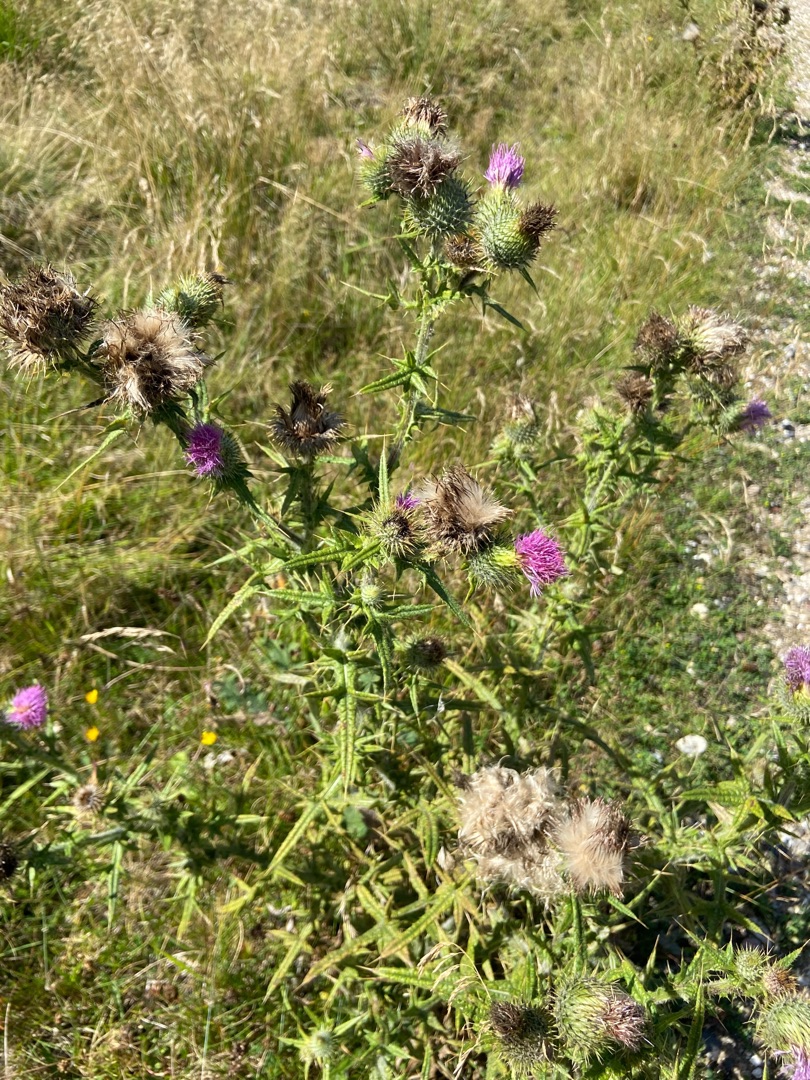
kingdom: Plantae
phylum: Tracheophyta
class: Magnoliopsida
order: Asterales
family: Asteraceae
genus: Cirsium
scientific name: Cirsium vulgare
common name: Horse-tidsel
